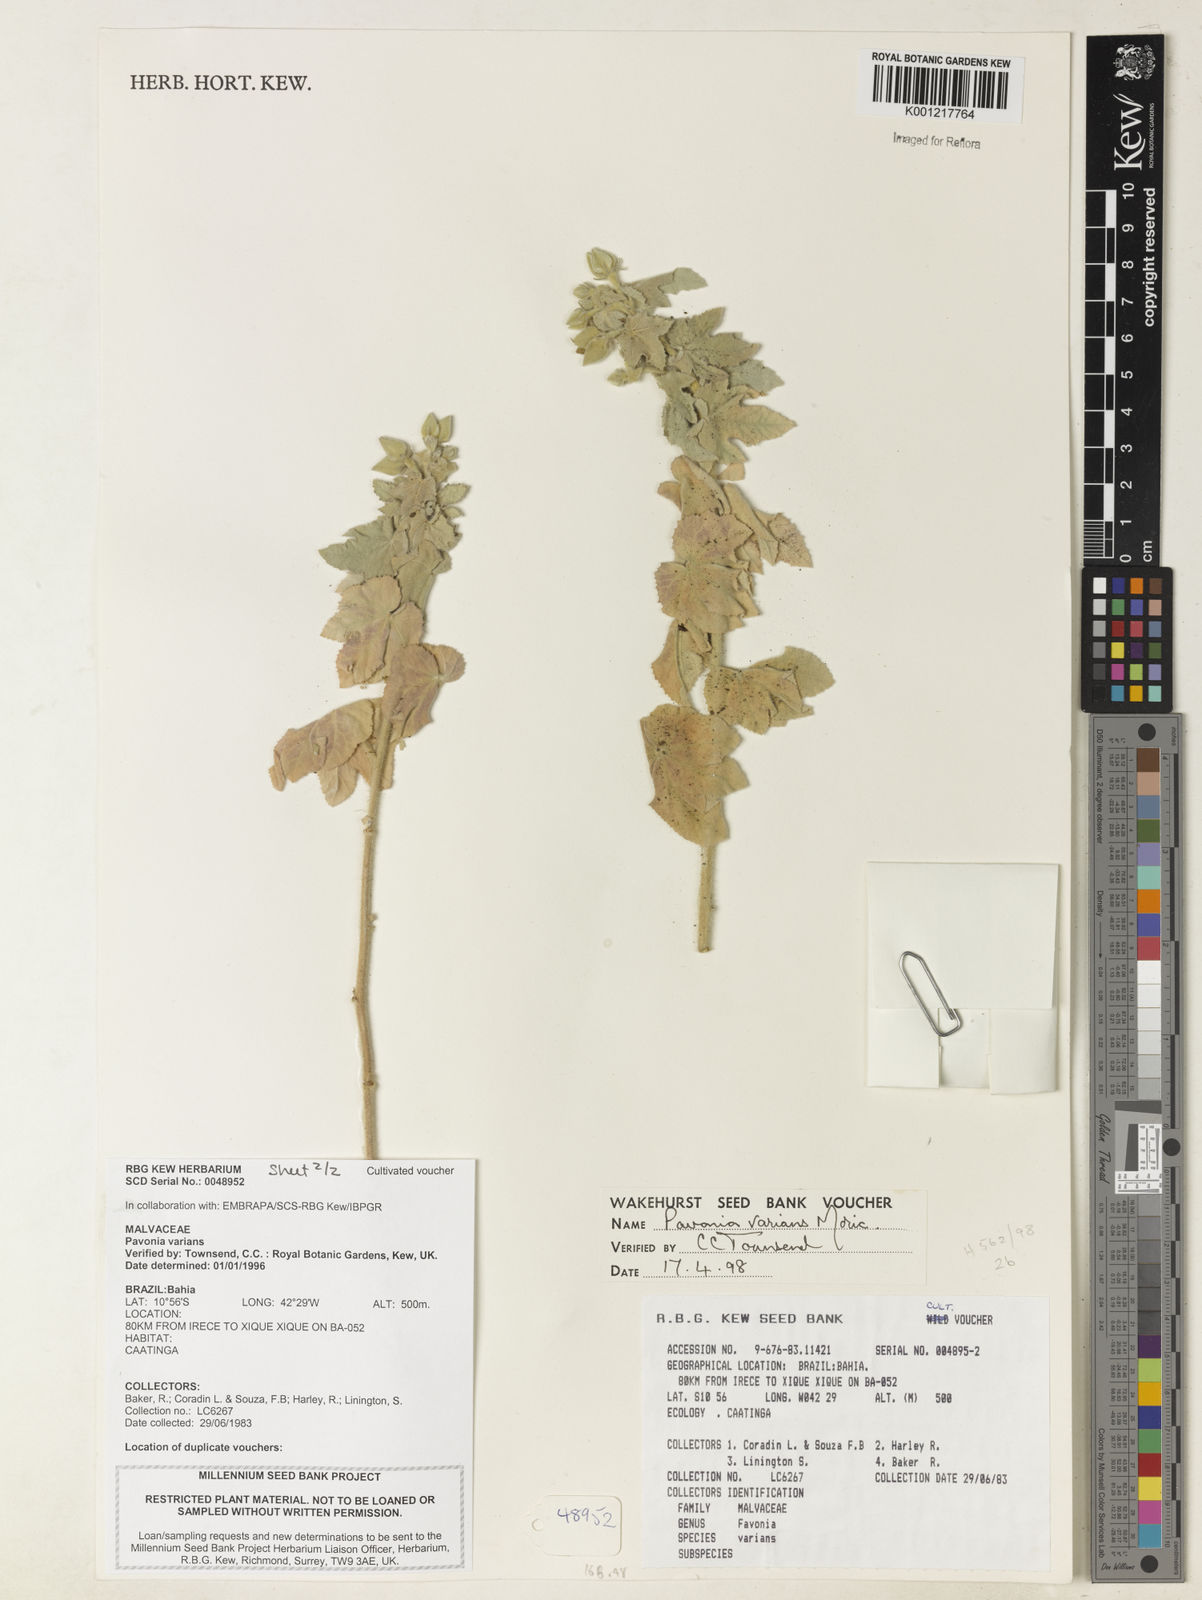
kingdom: Plantae
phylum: Tracheophyta
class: Magnoliopsida
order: Malvales
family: Malvaceae
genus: Pavonia
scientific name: Pavonia varians
